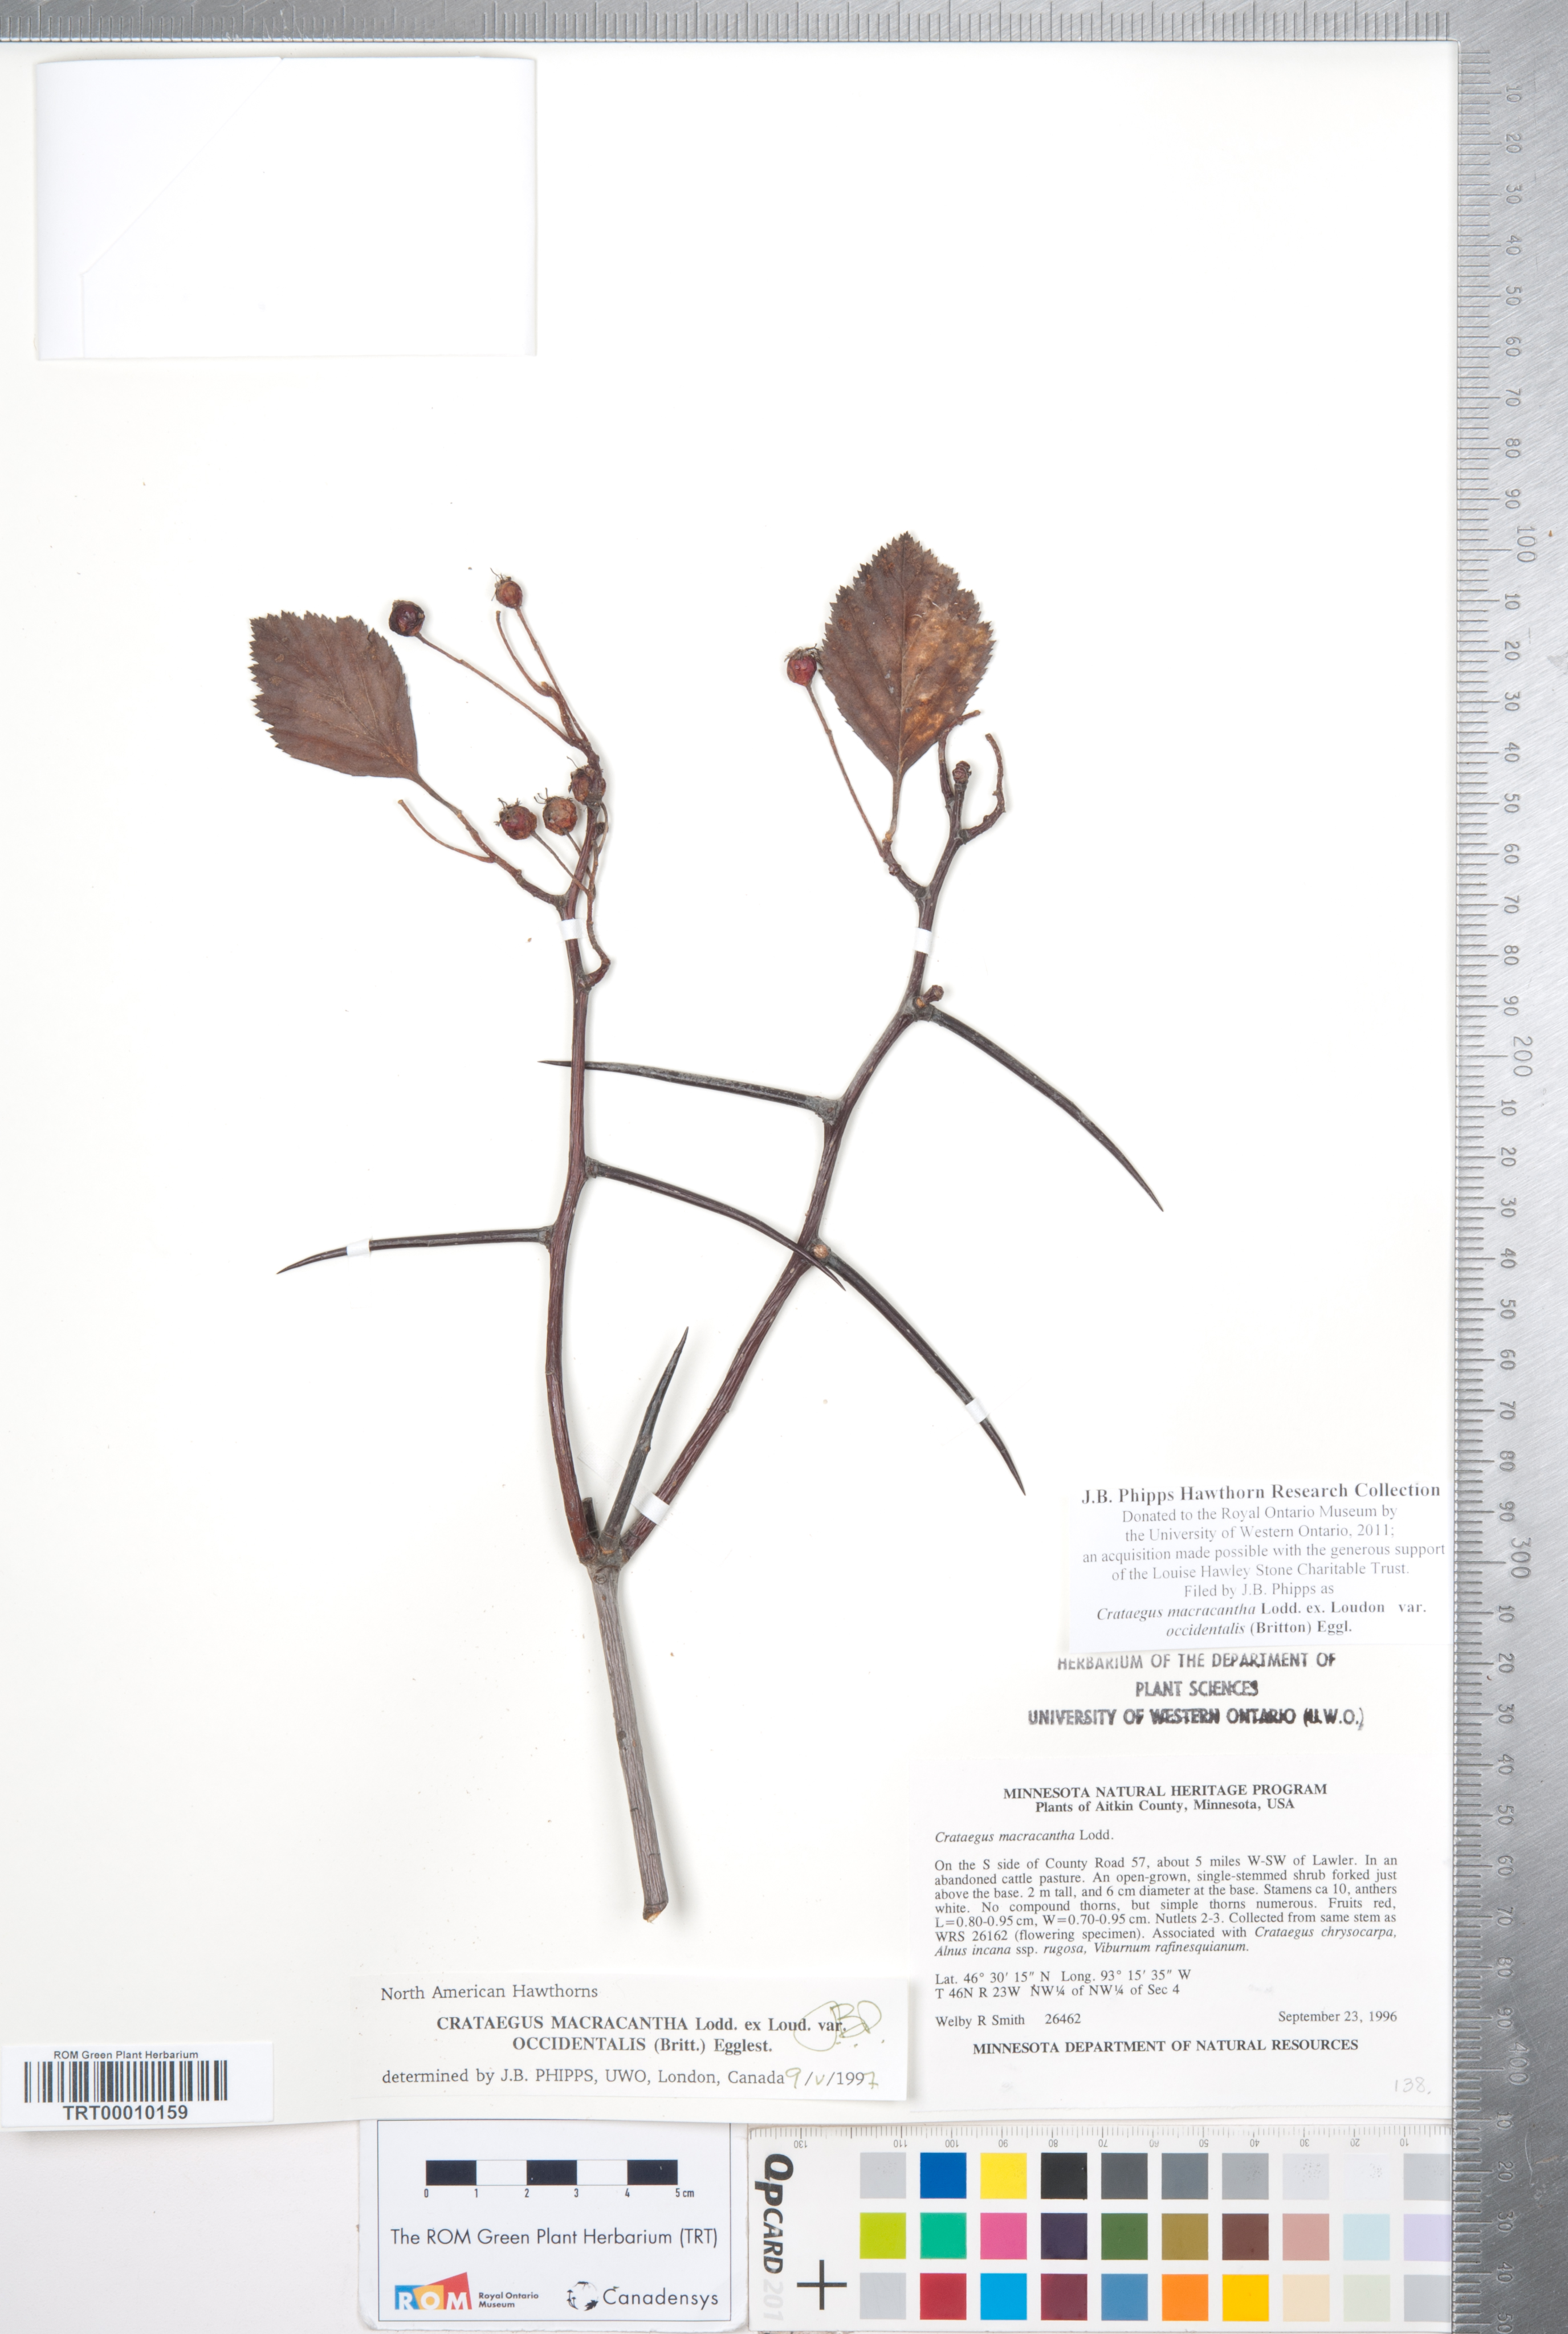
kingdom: Plantae
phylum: Tracheophyta
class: Magnoliopsida
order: Rosales
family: Rosaceae
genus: Crataegus
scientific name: Crataegus macracantha
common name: Large-thorn hawthorn
